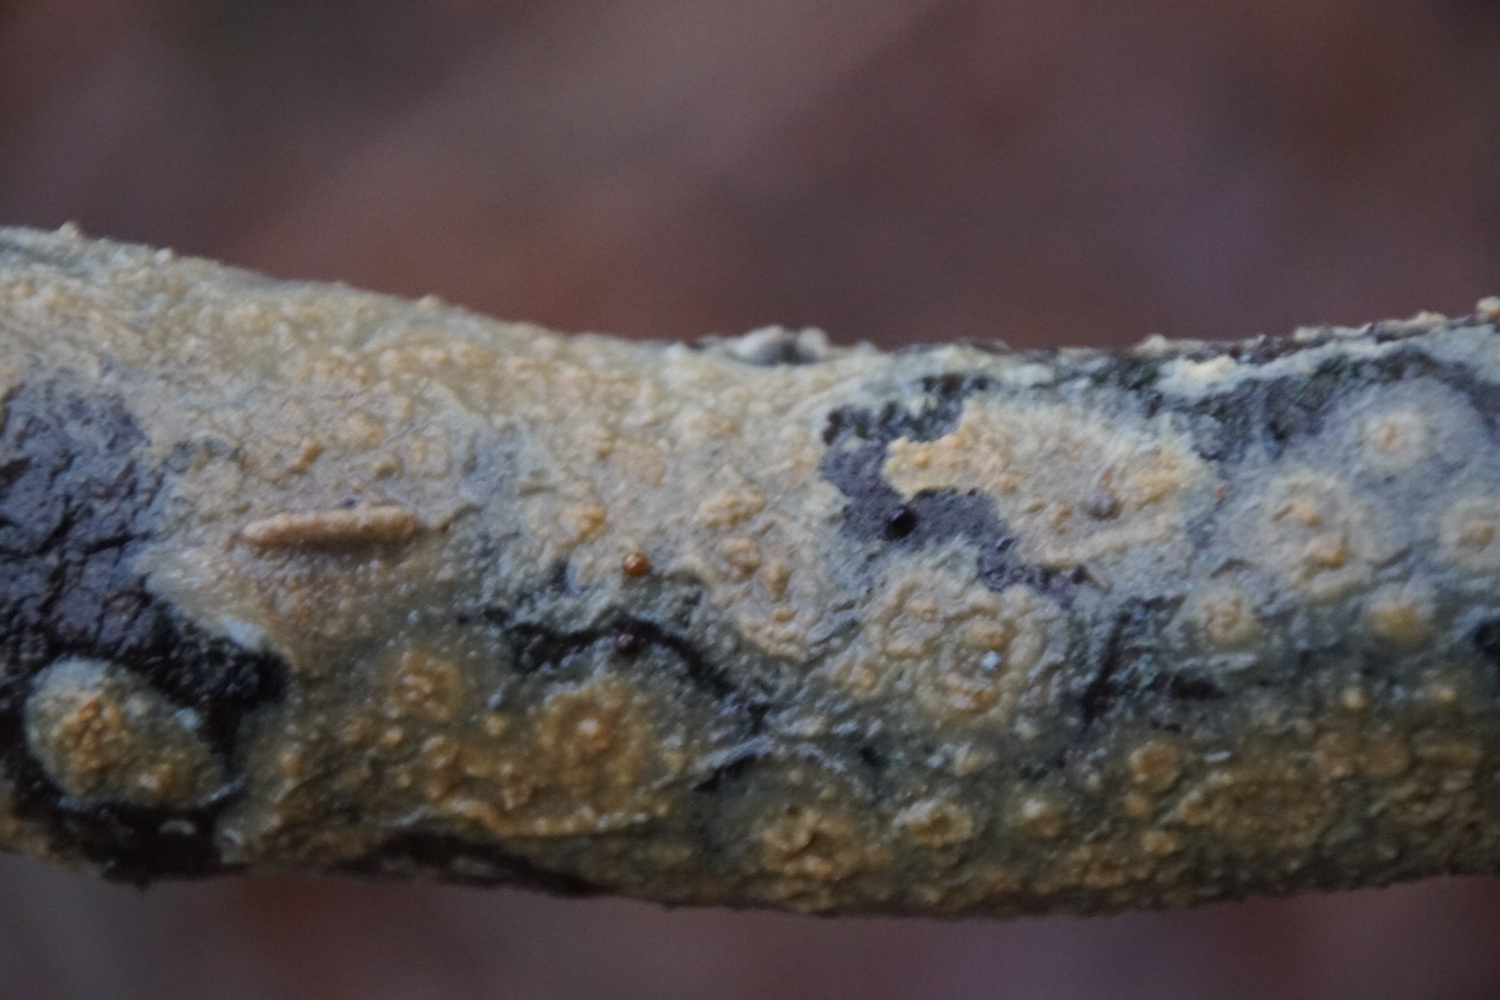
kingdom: Fungi
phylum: Basidiomycota
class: Agaricomycetes
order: Agaricales
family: Radulomycetaceae
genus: Radulomyces
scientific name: Radulomyces confluens
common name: glat naftalinskind
